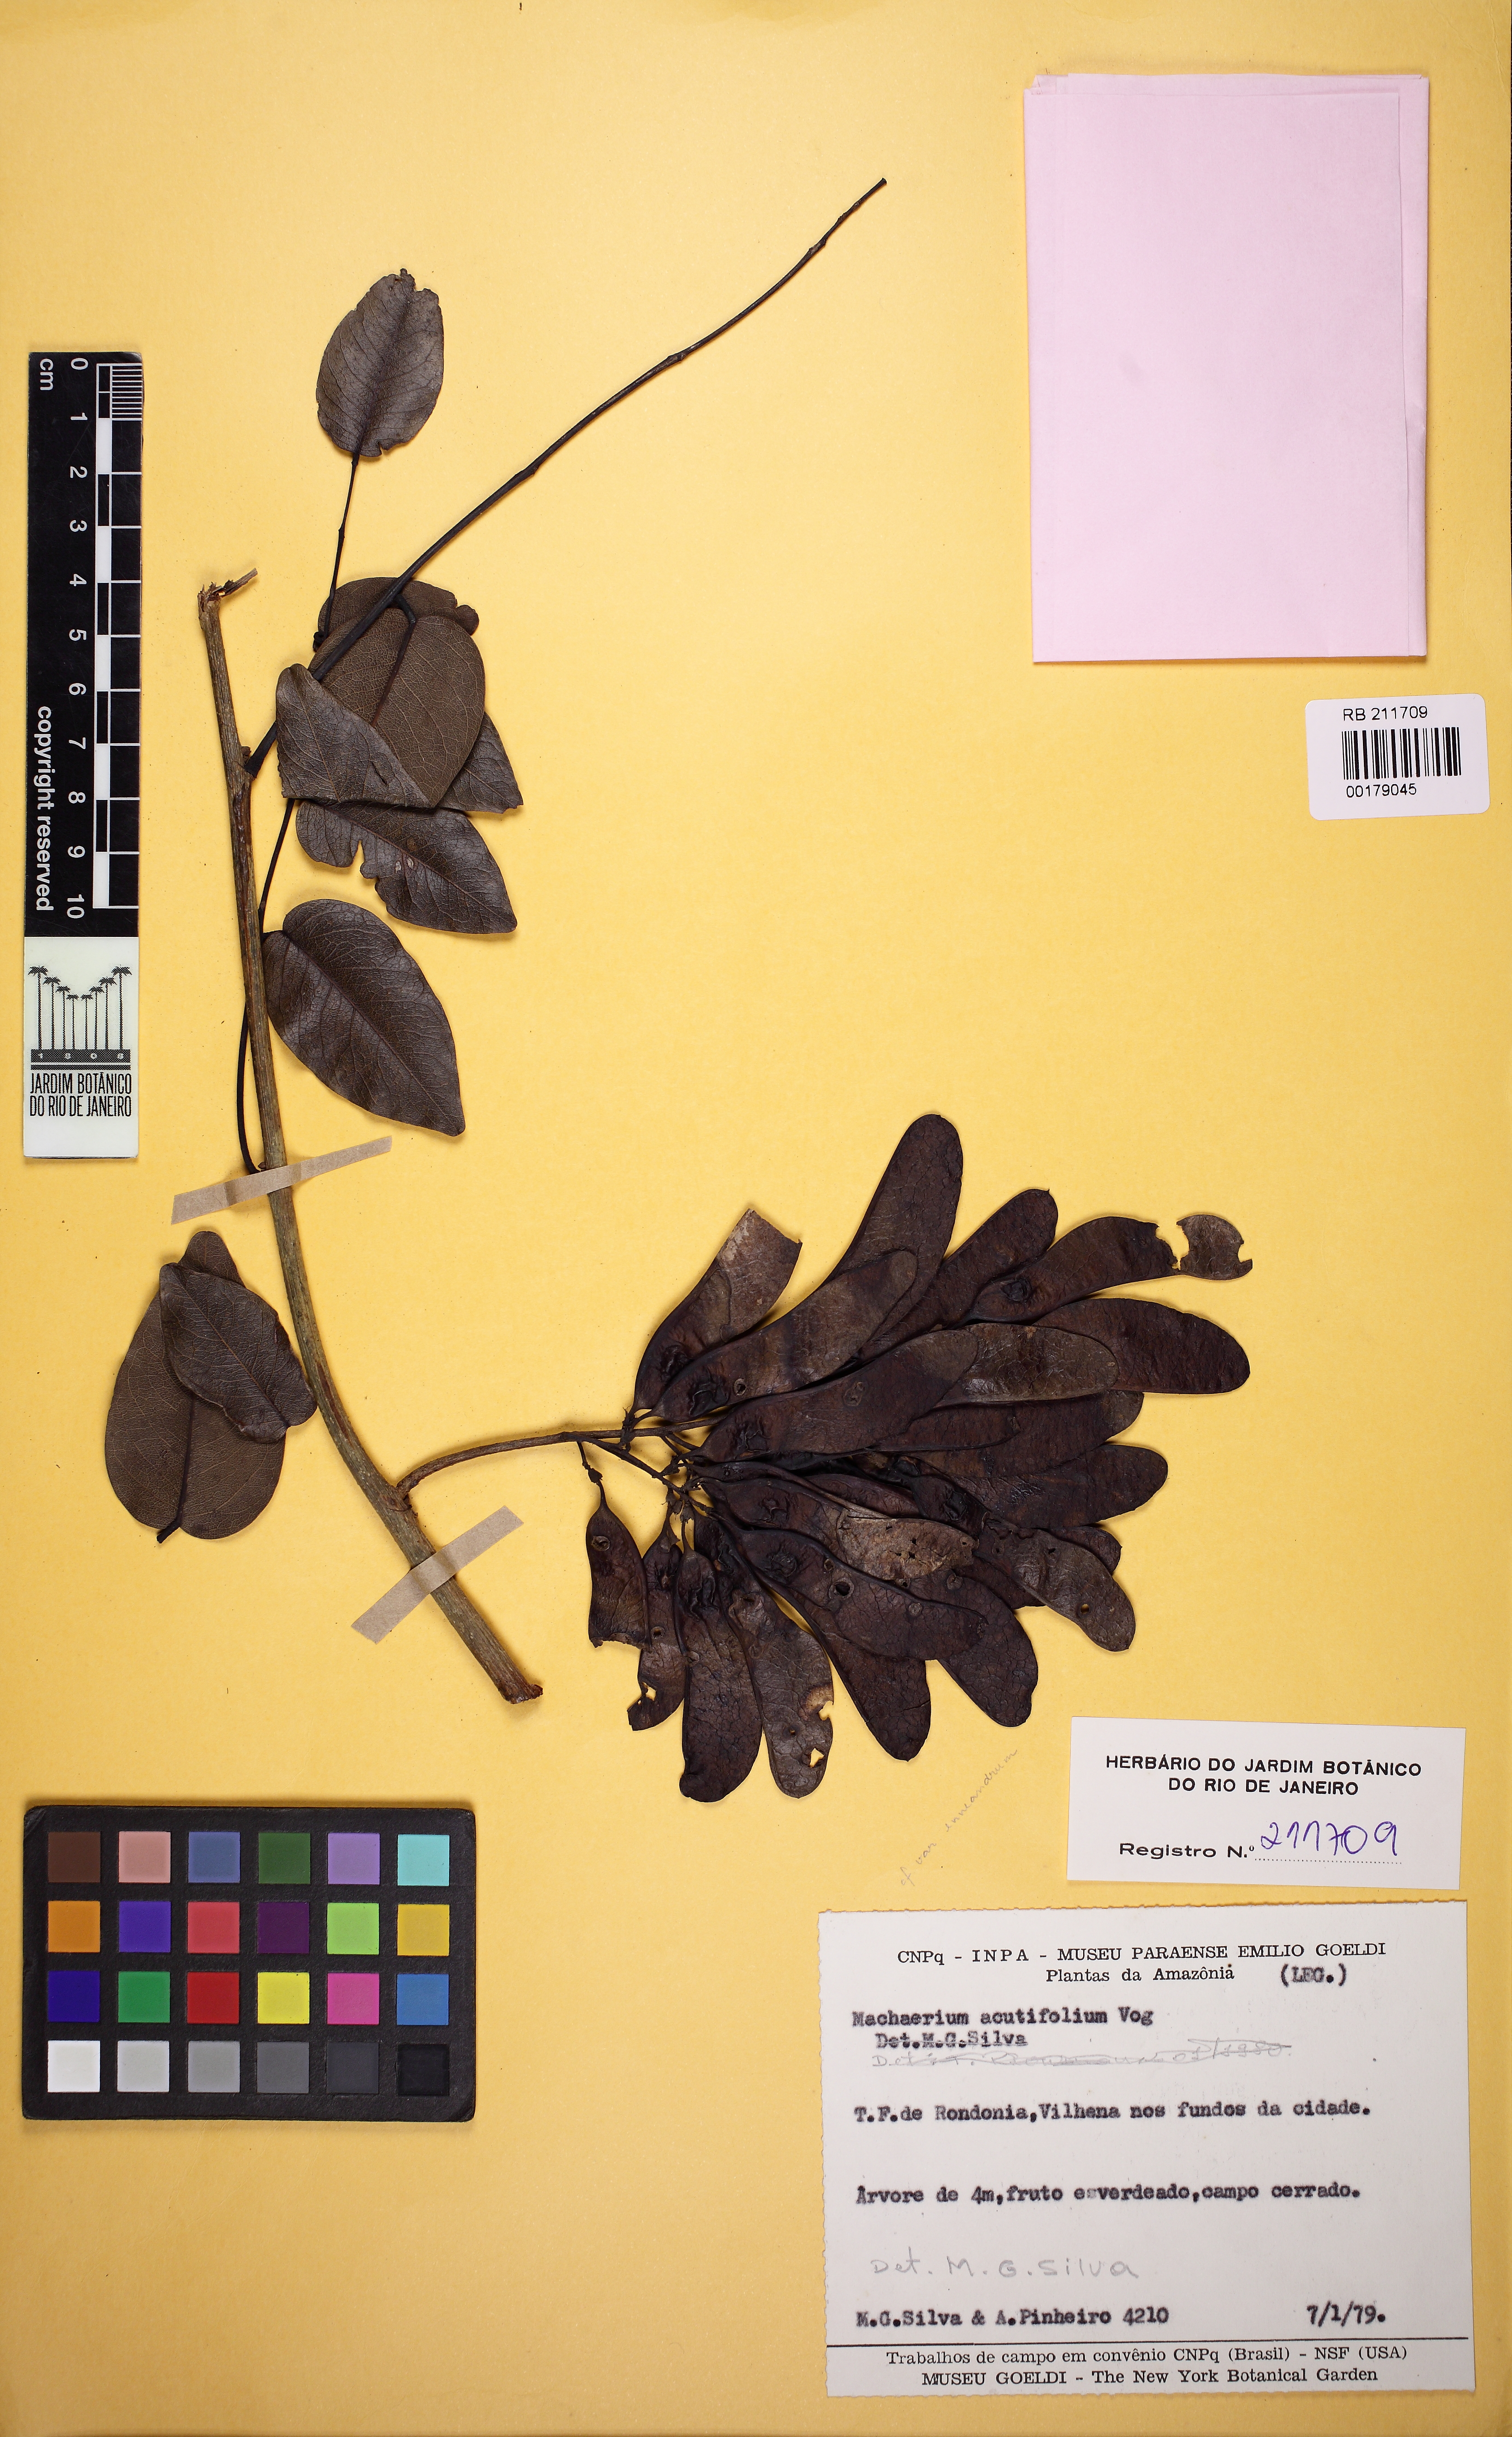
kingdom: Plantae
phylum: Tracheophyta
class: Magnoliopsida
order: Fabales
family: Fabaceae
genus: Machaerium
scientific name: Machaerium acutifolium
